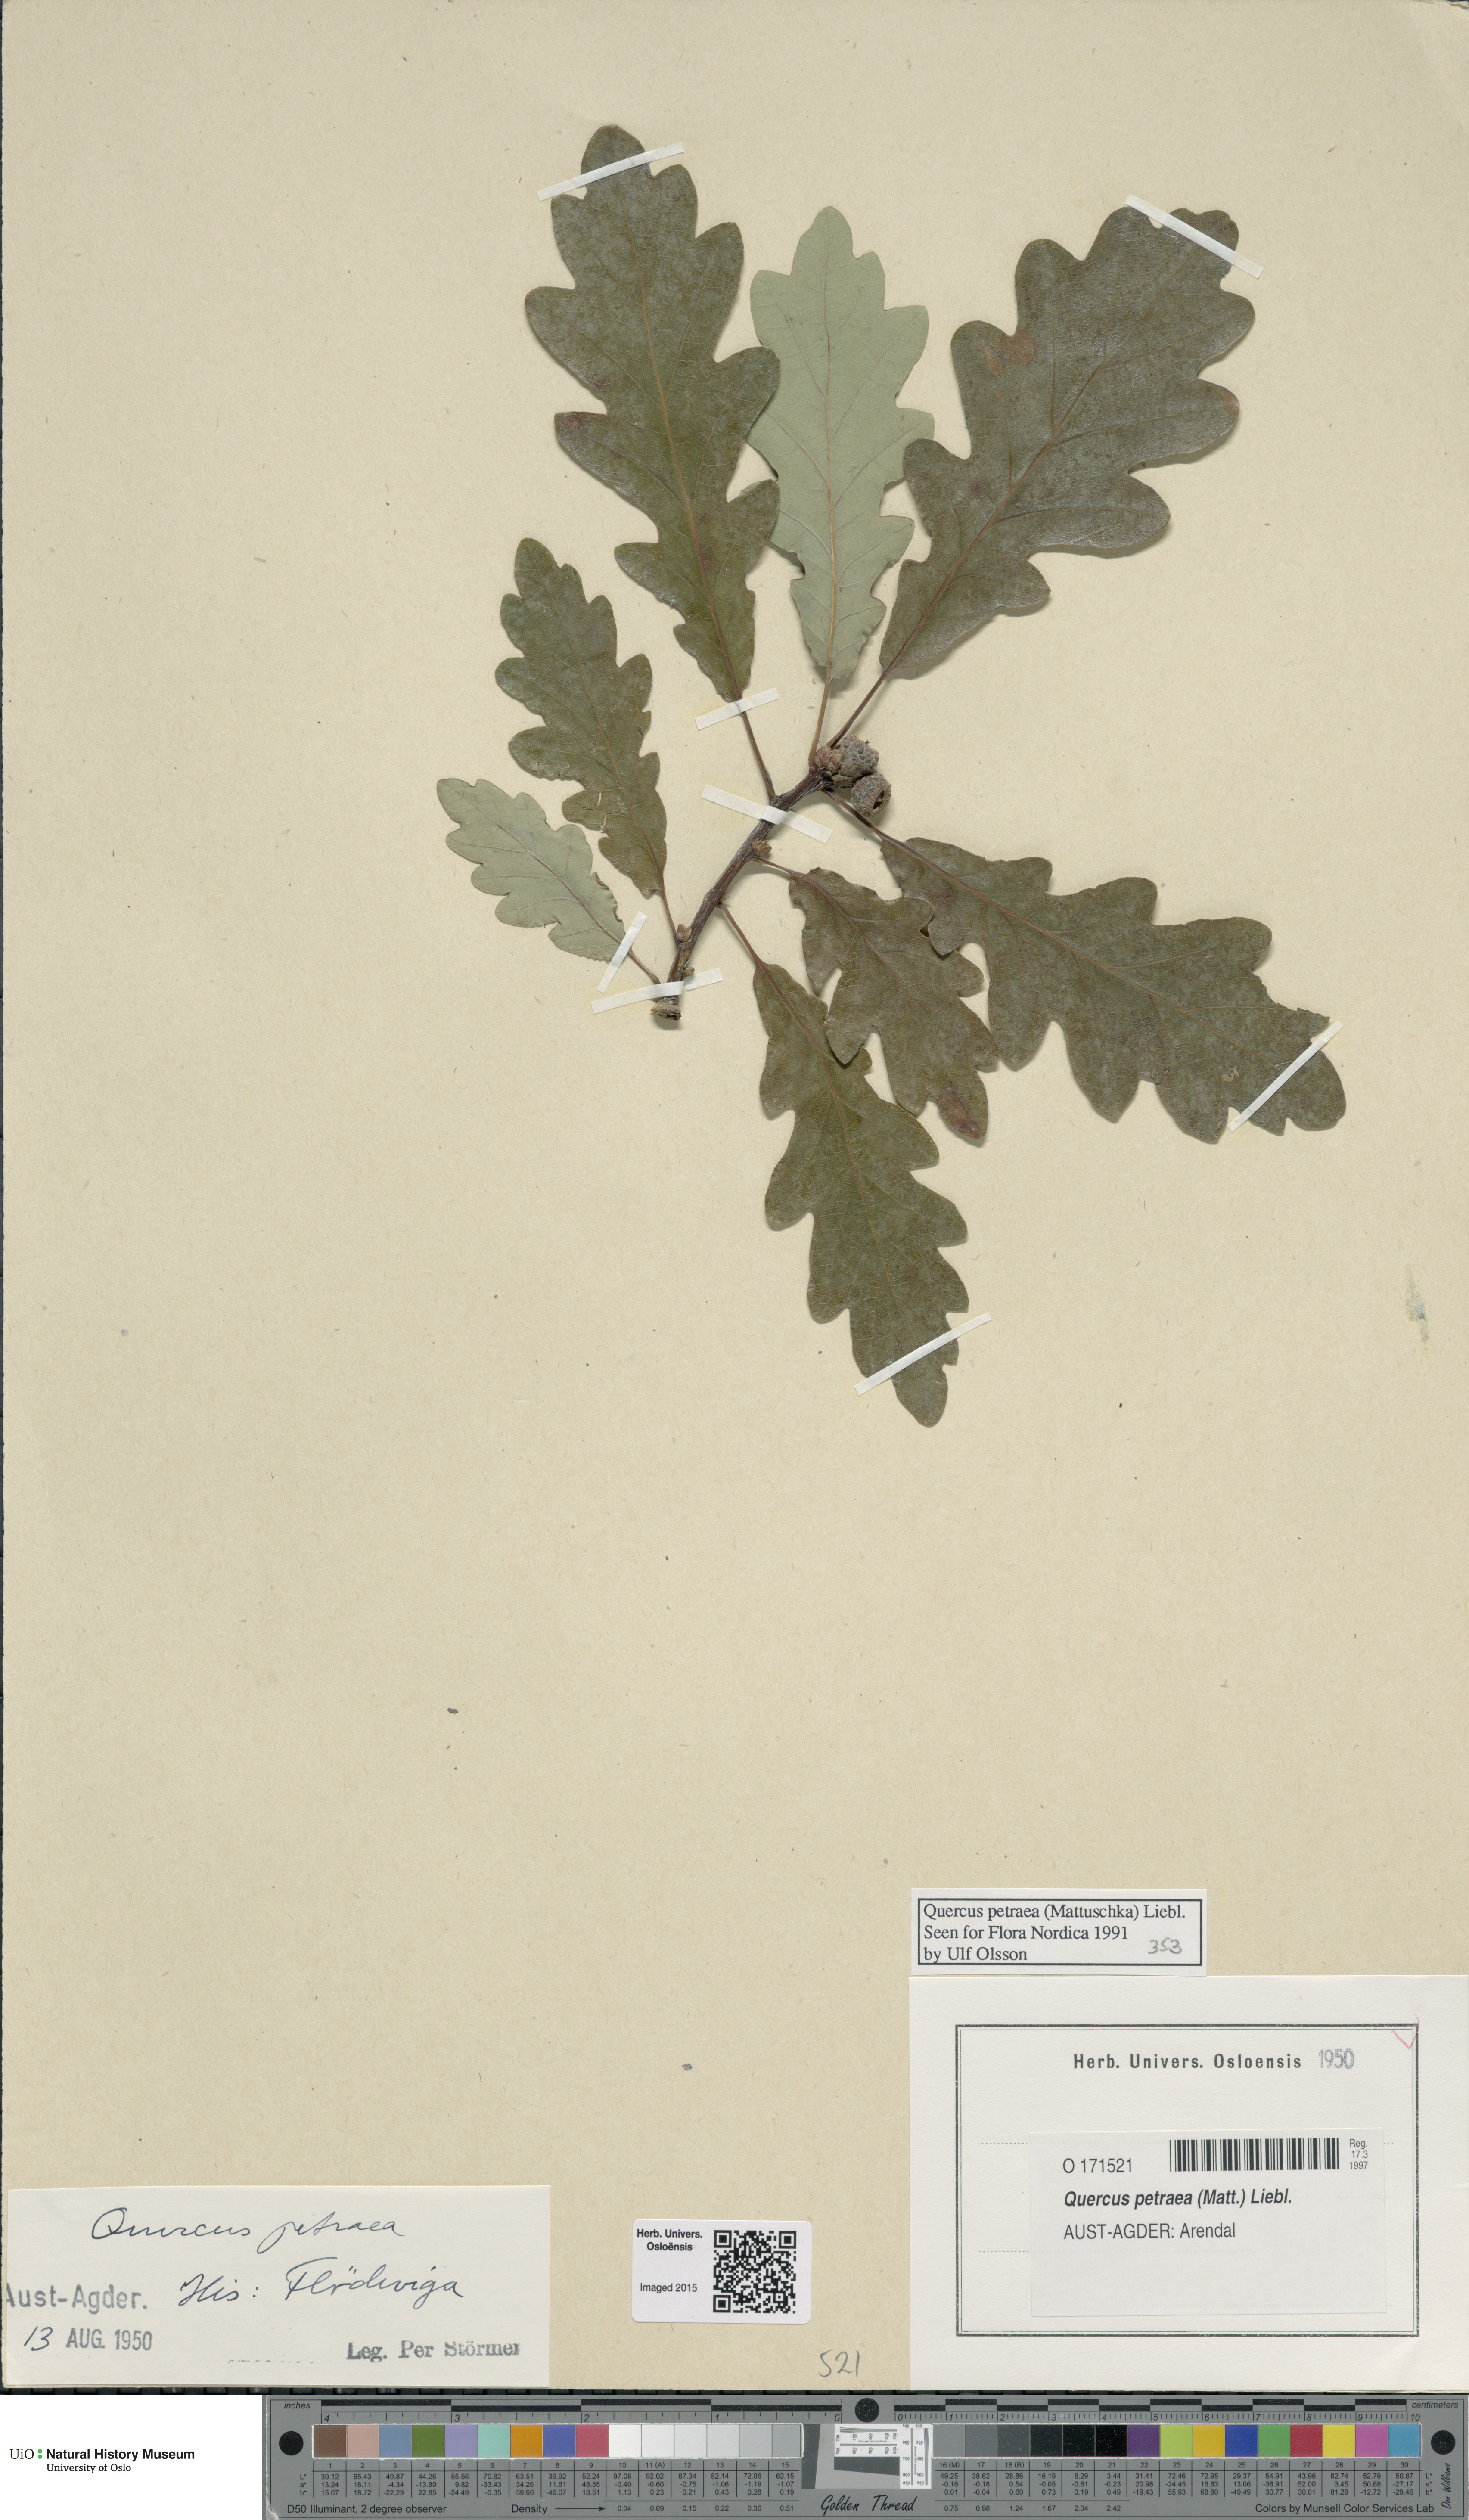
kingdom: Plantae
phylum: Tracheophyta
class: Magnoliopsida
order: Fagales
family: Fagaceae
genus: Quercus
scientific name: Quercus petraea
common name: Sessile oak
